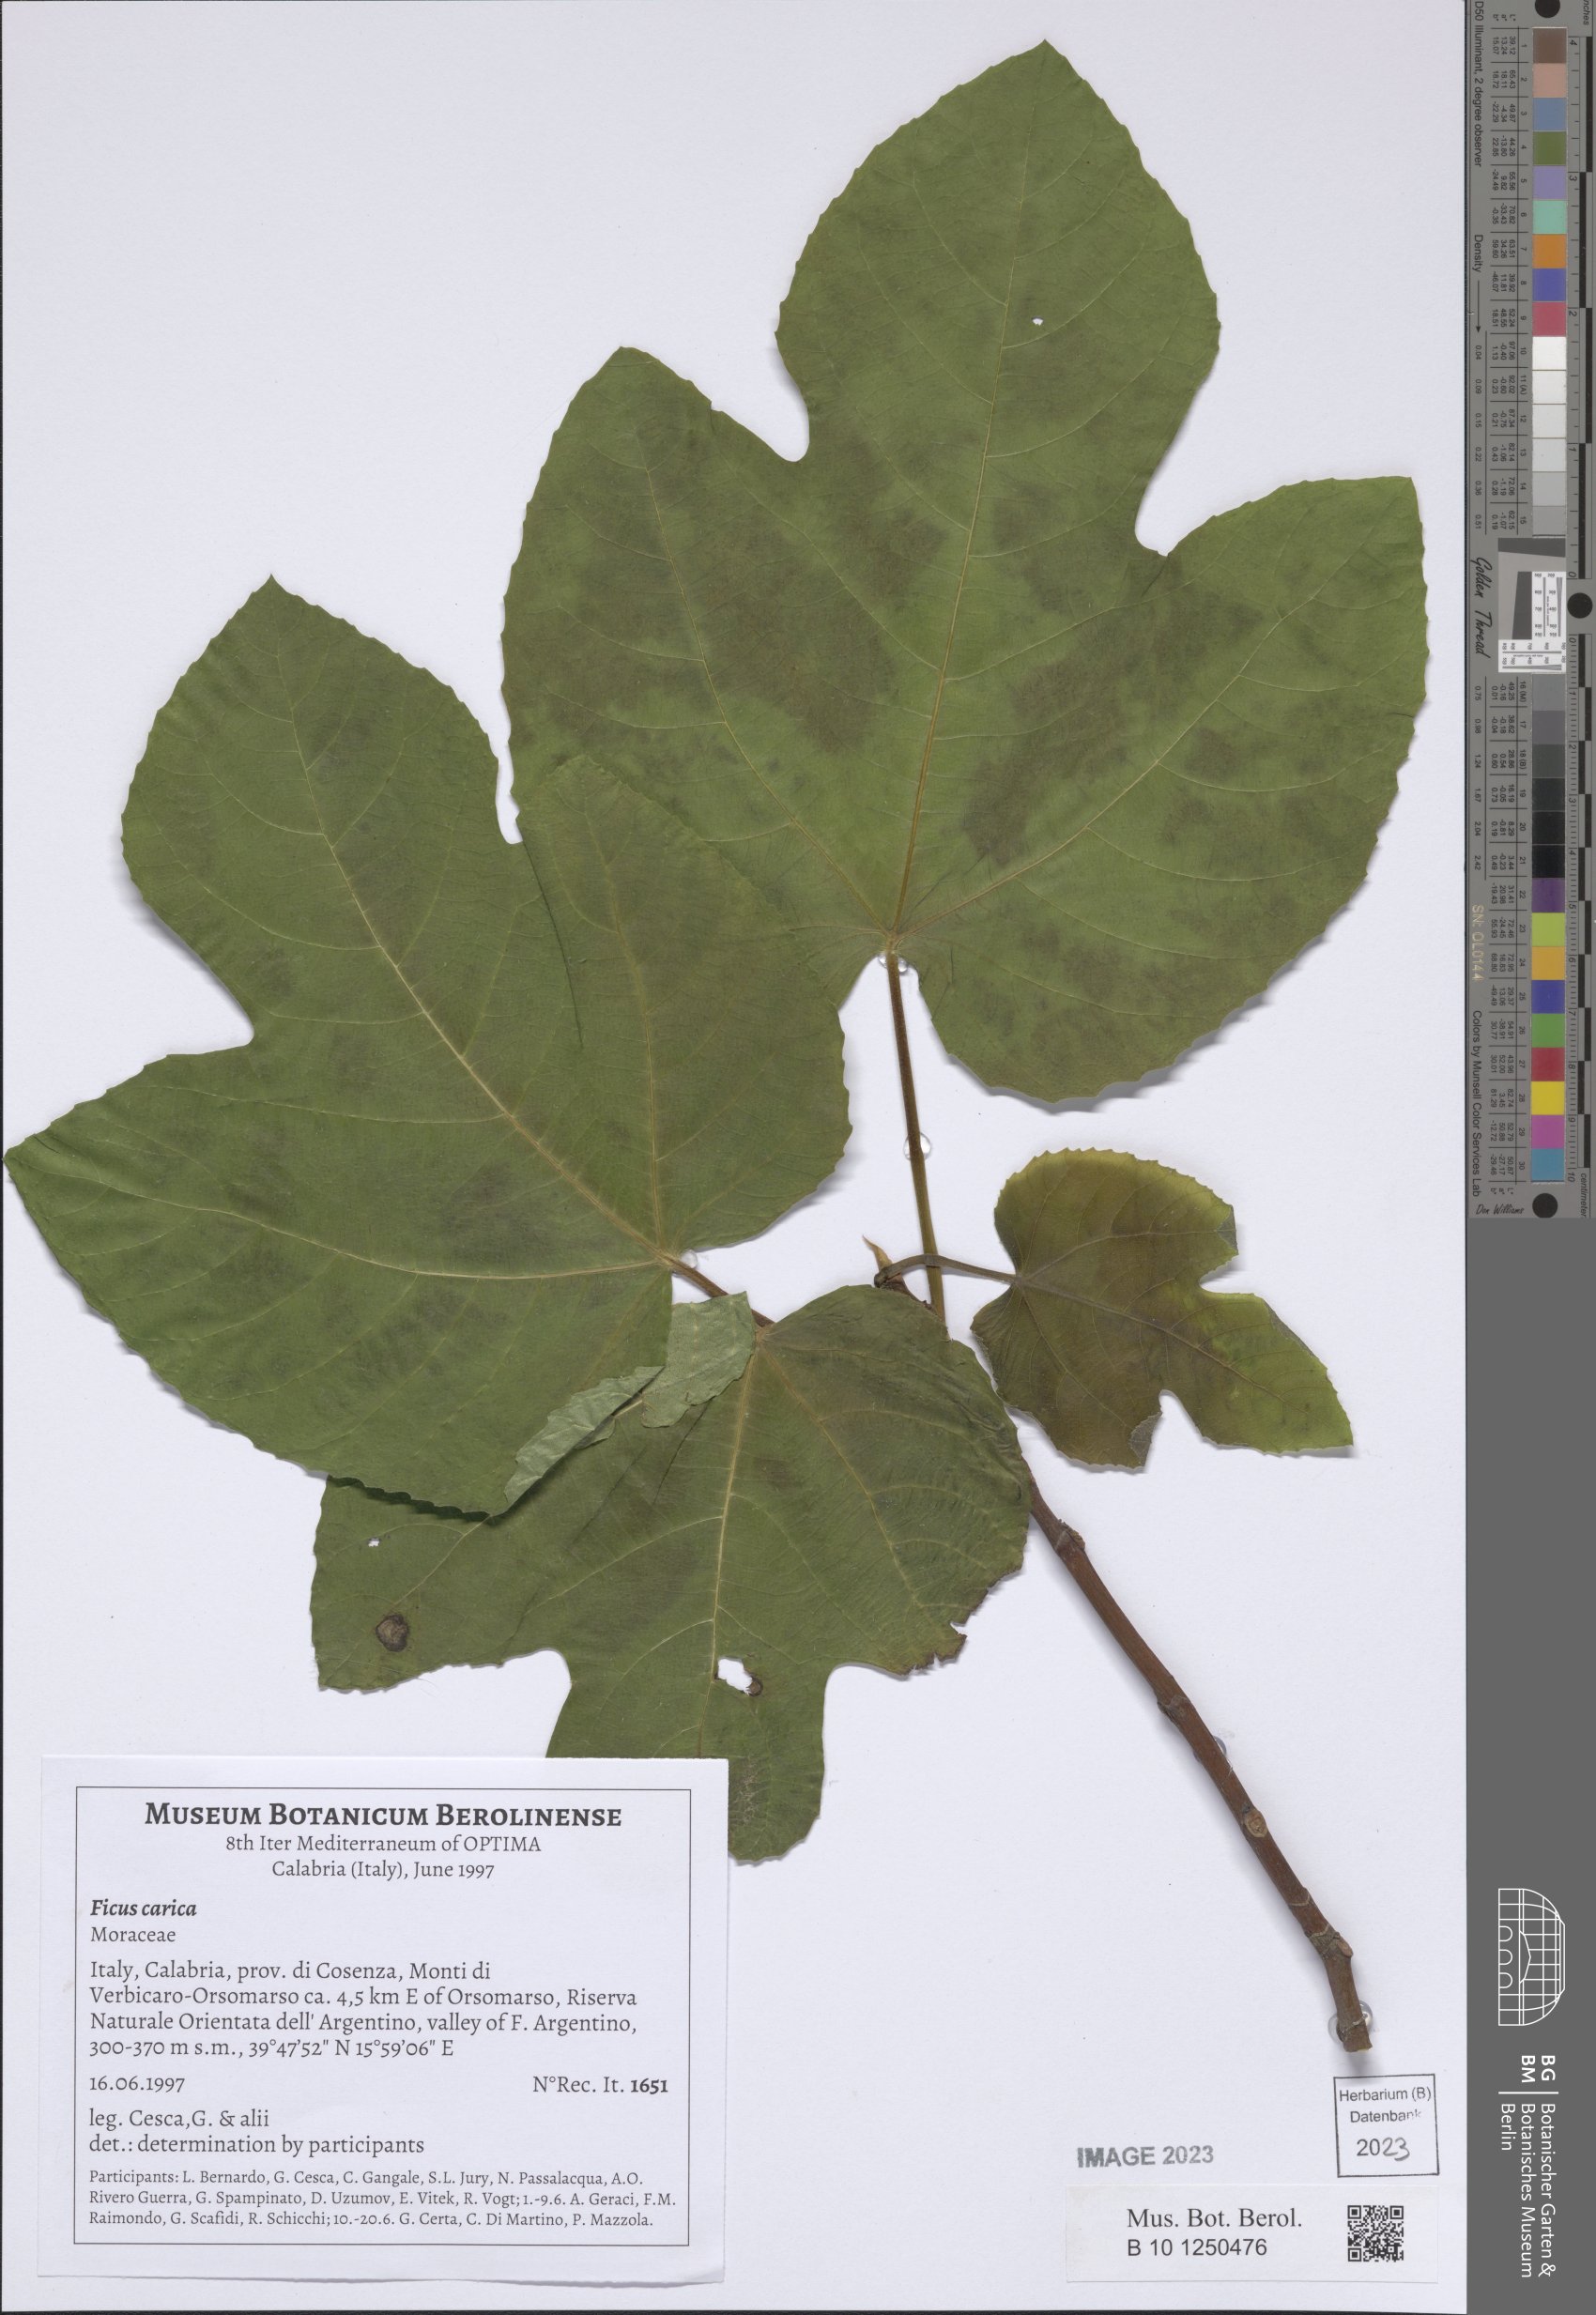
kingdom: Plantae
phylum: Tracheophyta
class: Magnoliopsida
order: Rosales
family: Moraceae
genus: Ficus
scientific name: Ficus carica
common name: Fig
